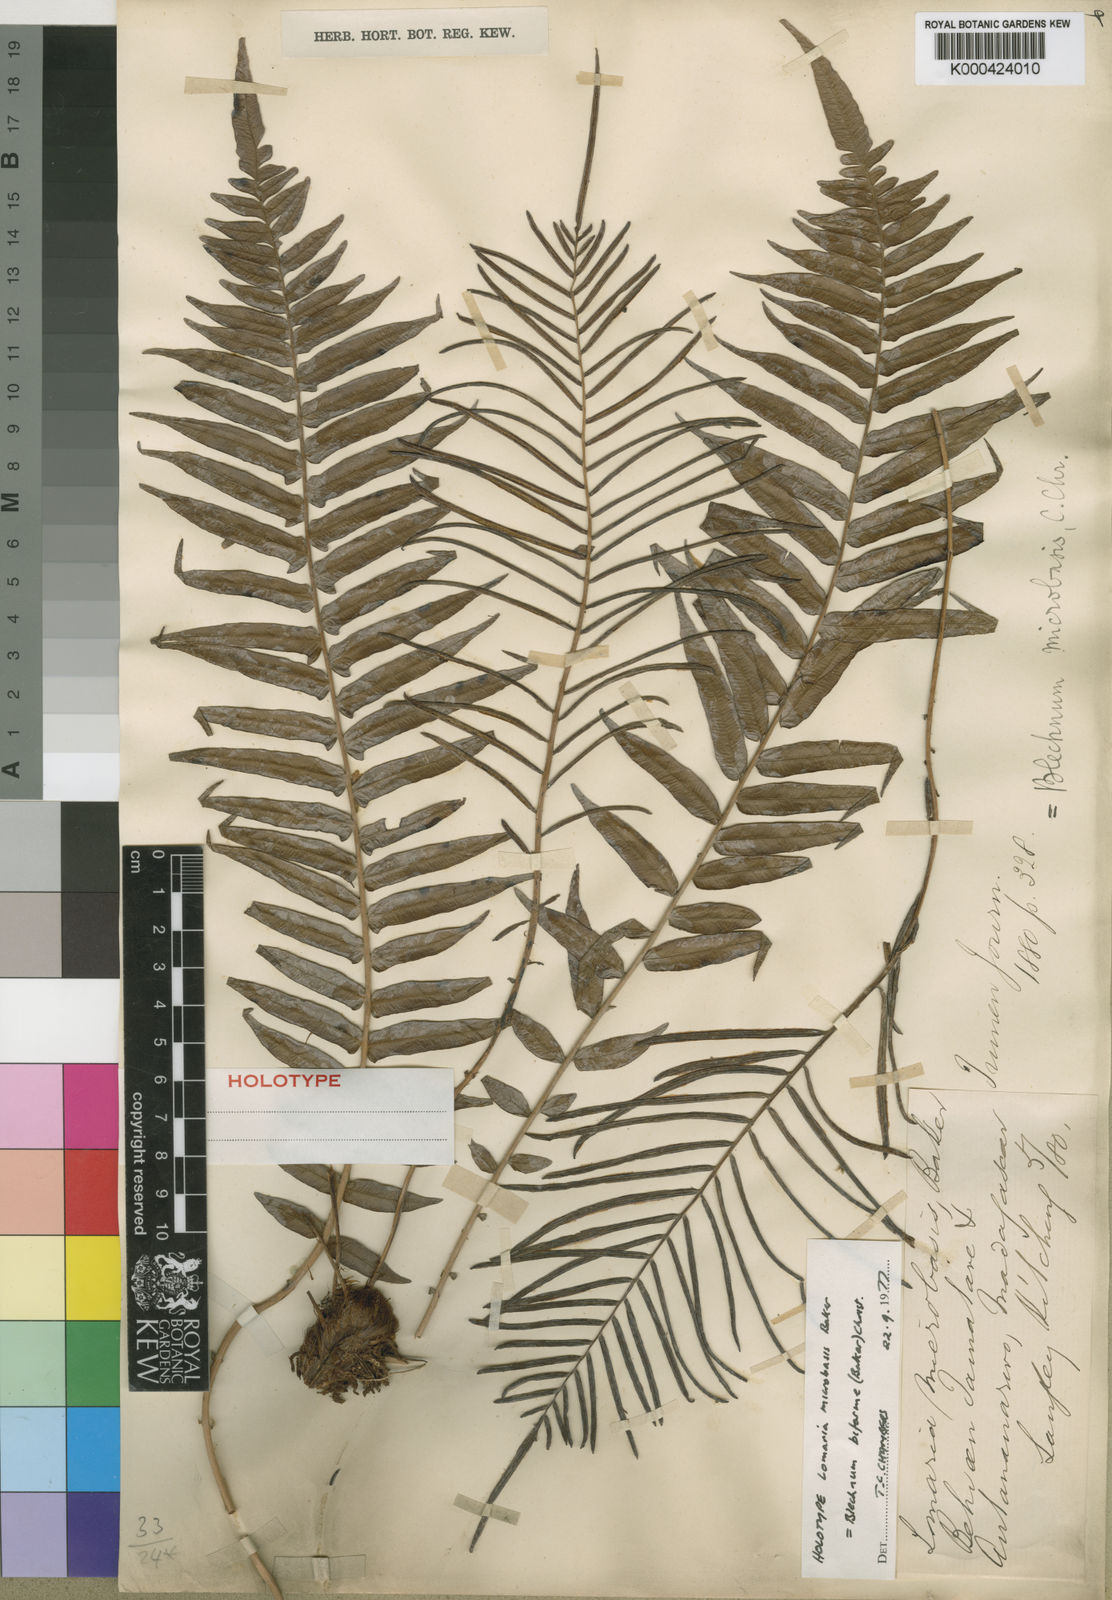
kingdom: Plantae
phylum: Tracheophyta
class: Polypodiopsida
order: Polypodiales
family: Blechnaceae
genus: Lomaridium
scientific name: Lomaridium biforme
